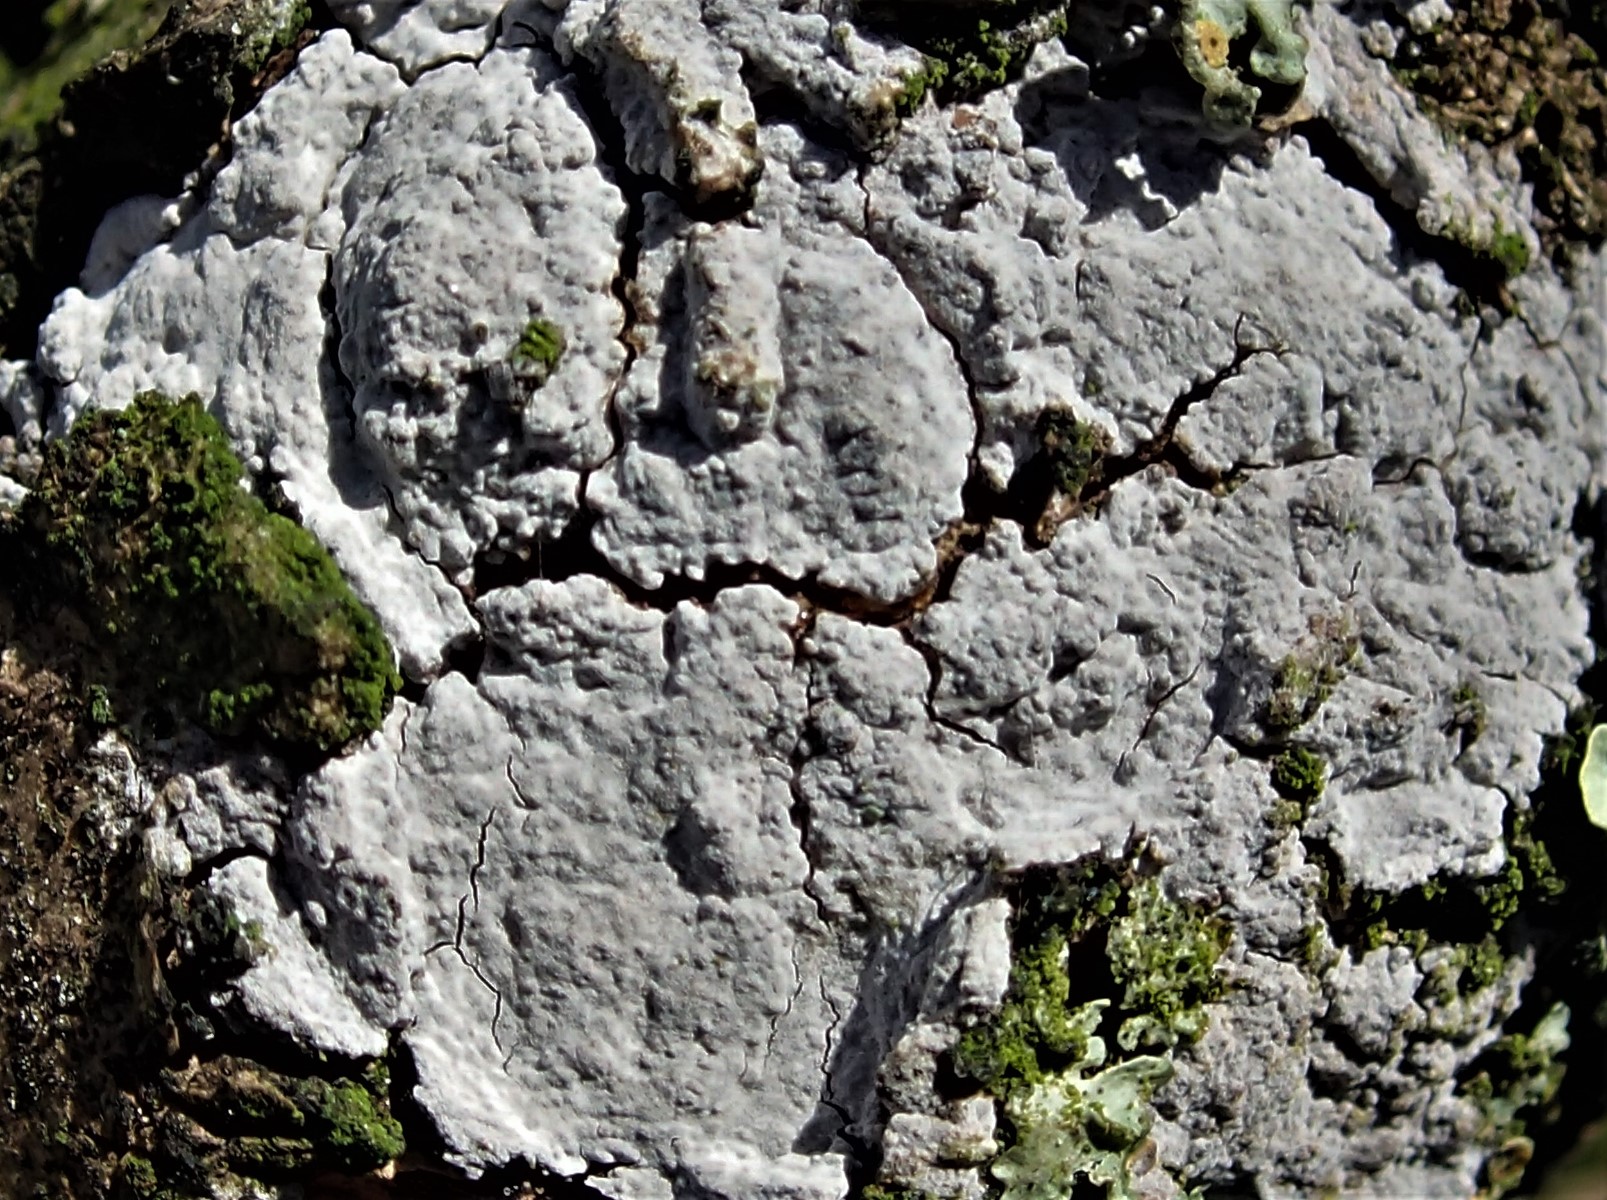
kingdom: Fungi
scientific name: Fungi
